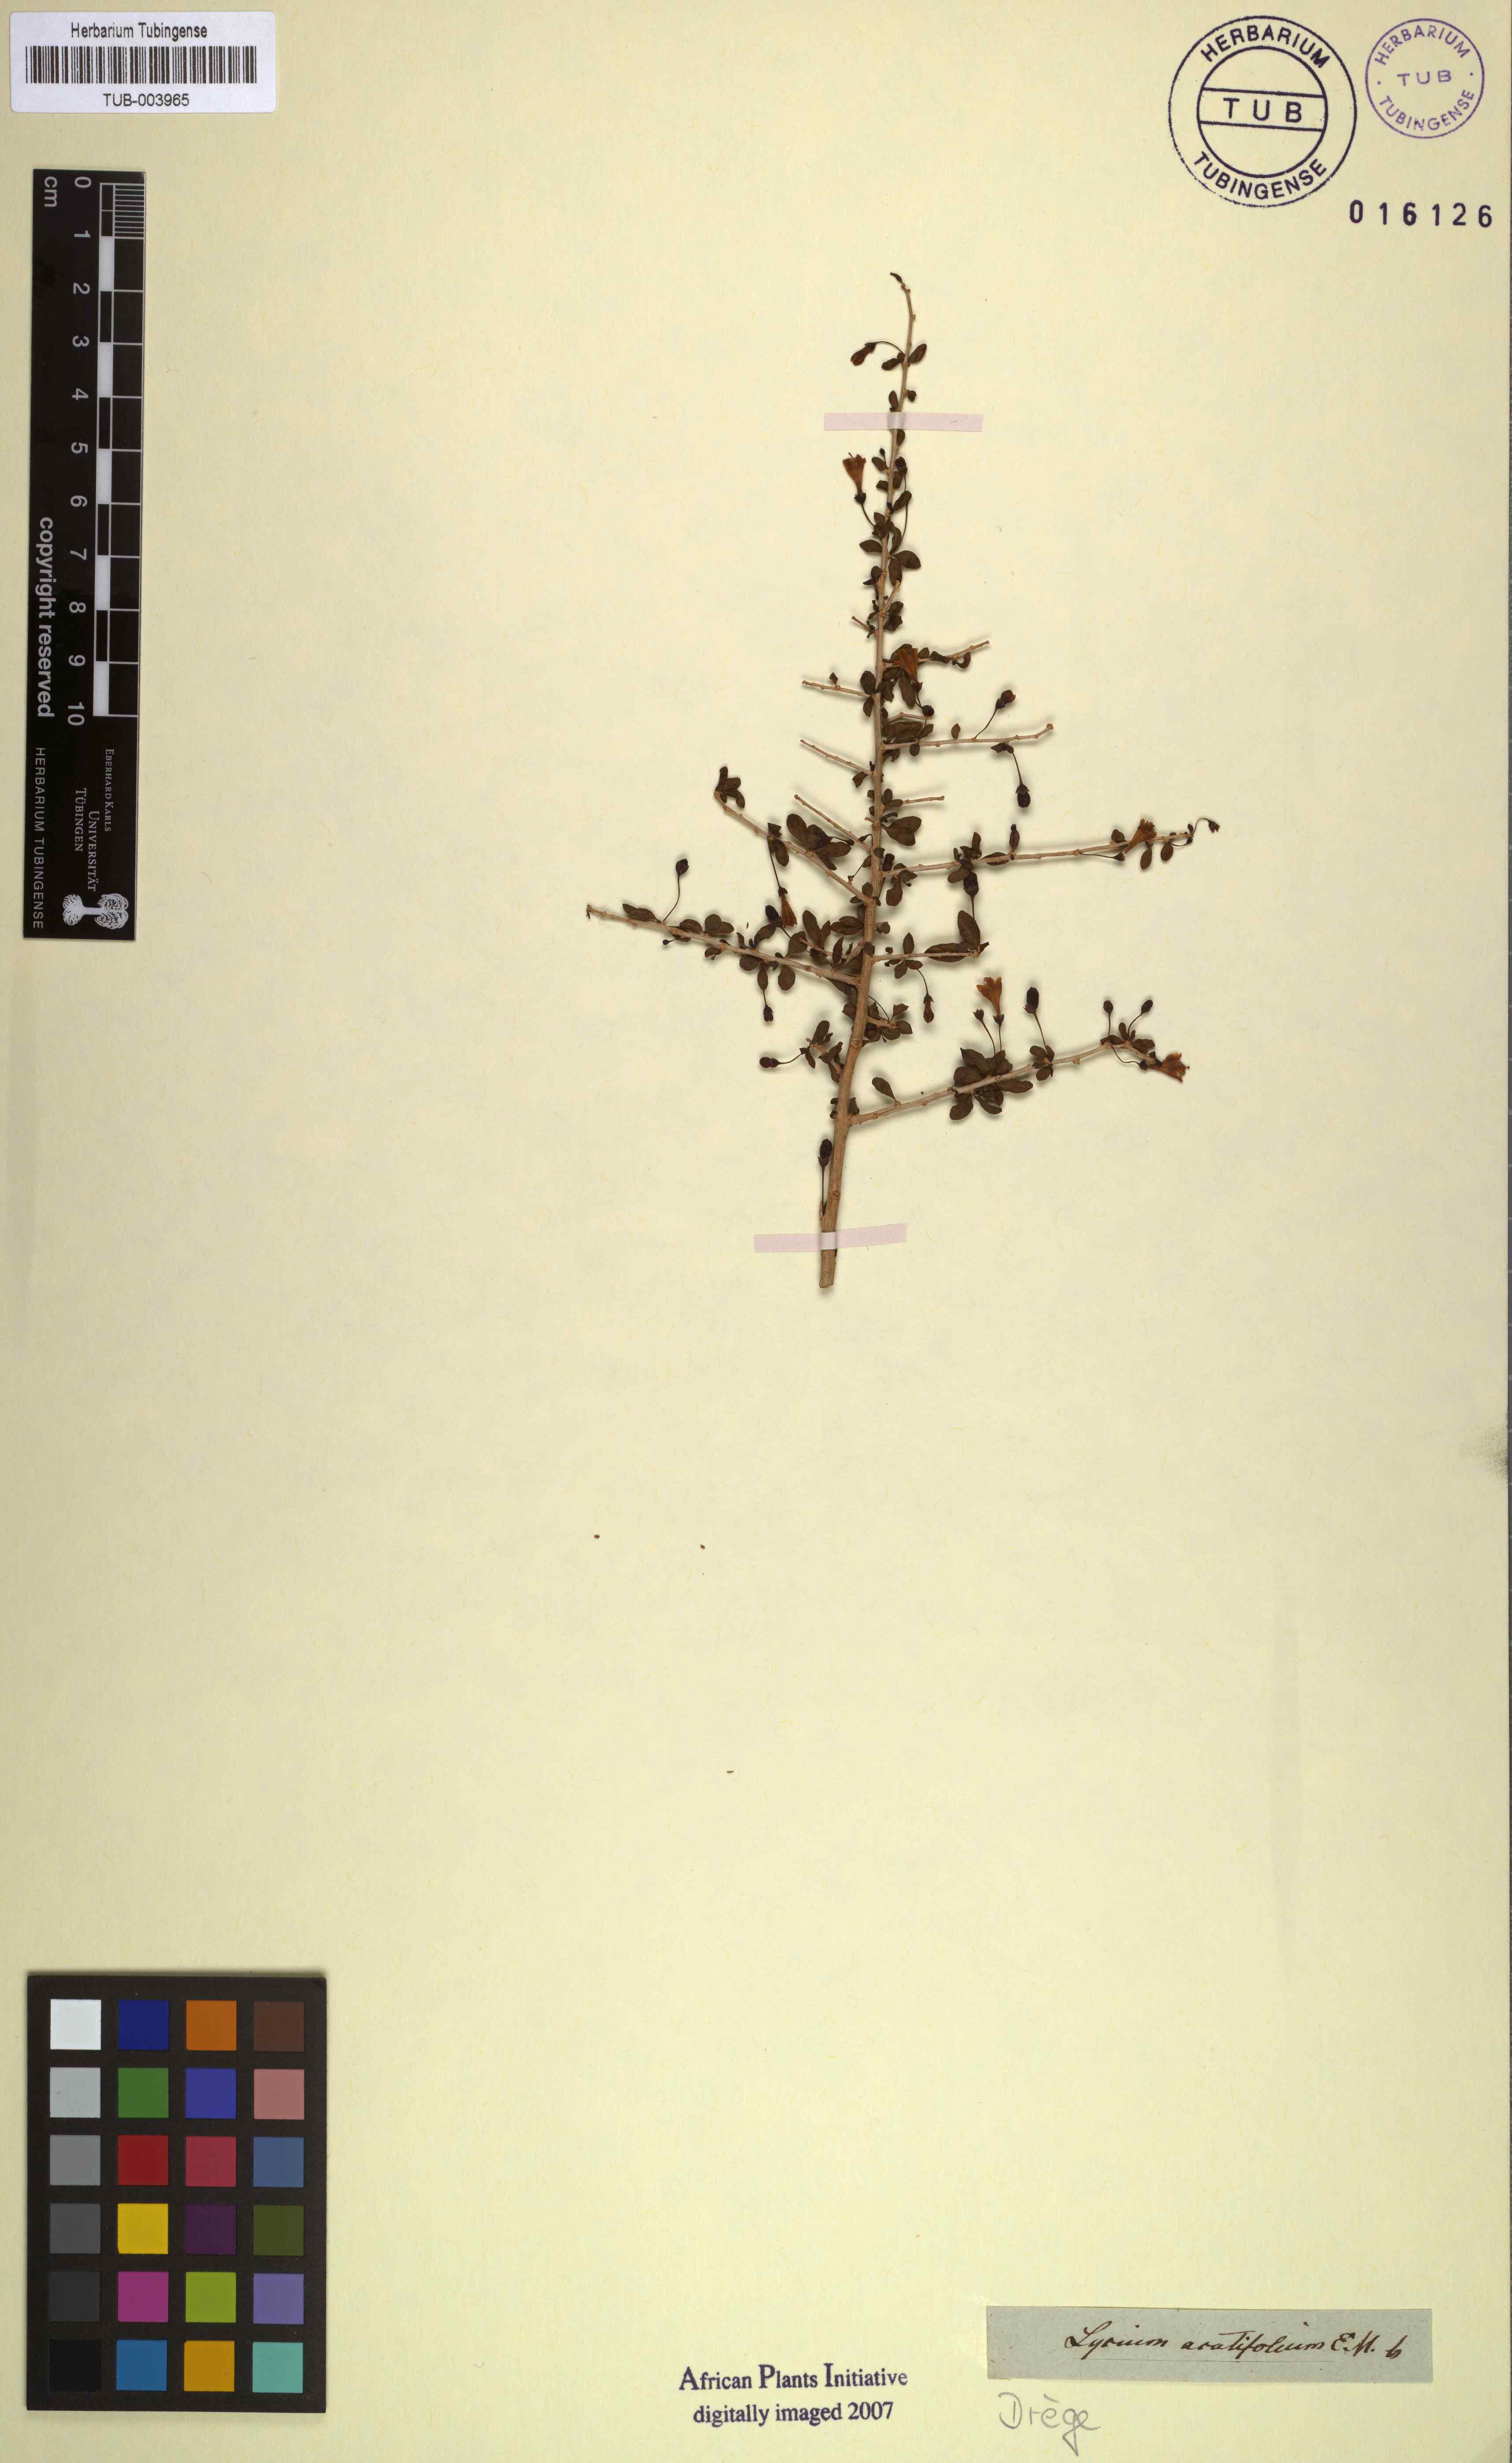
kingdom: Plantae
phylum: Tracheophyta
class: Magnoliopsida
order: Solanales
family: Solanaceae
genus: Lycium
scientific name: Lycium acutifolium
